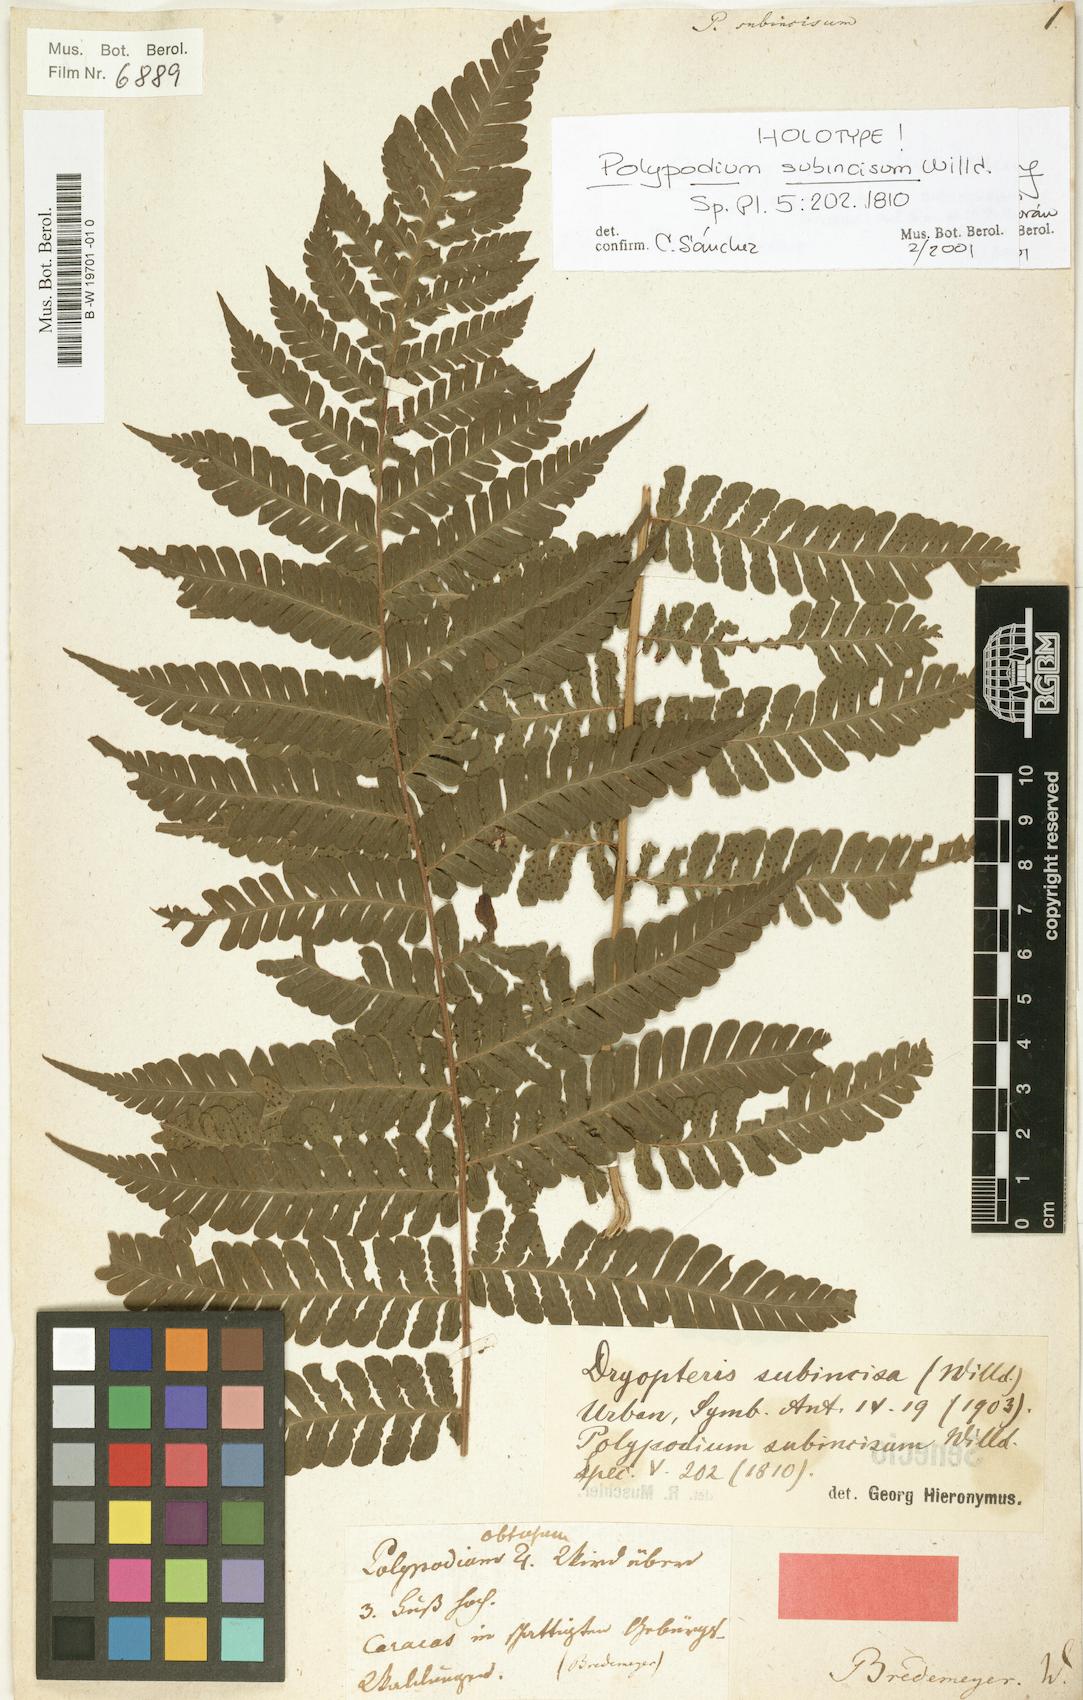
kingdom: Plantae
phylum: Tracheophyta
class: Polypodiopsida
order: Polypodiales
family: Dryopteridaceae
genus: Megalastrum
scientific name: Megalastrum subincisum
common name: Jagleaf junglefern
